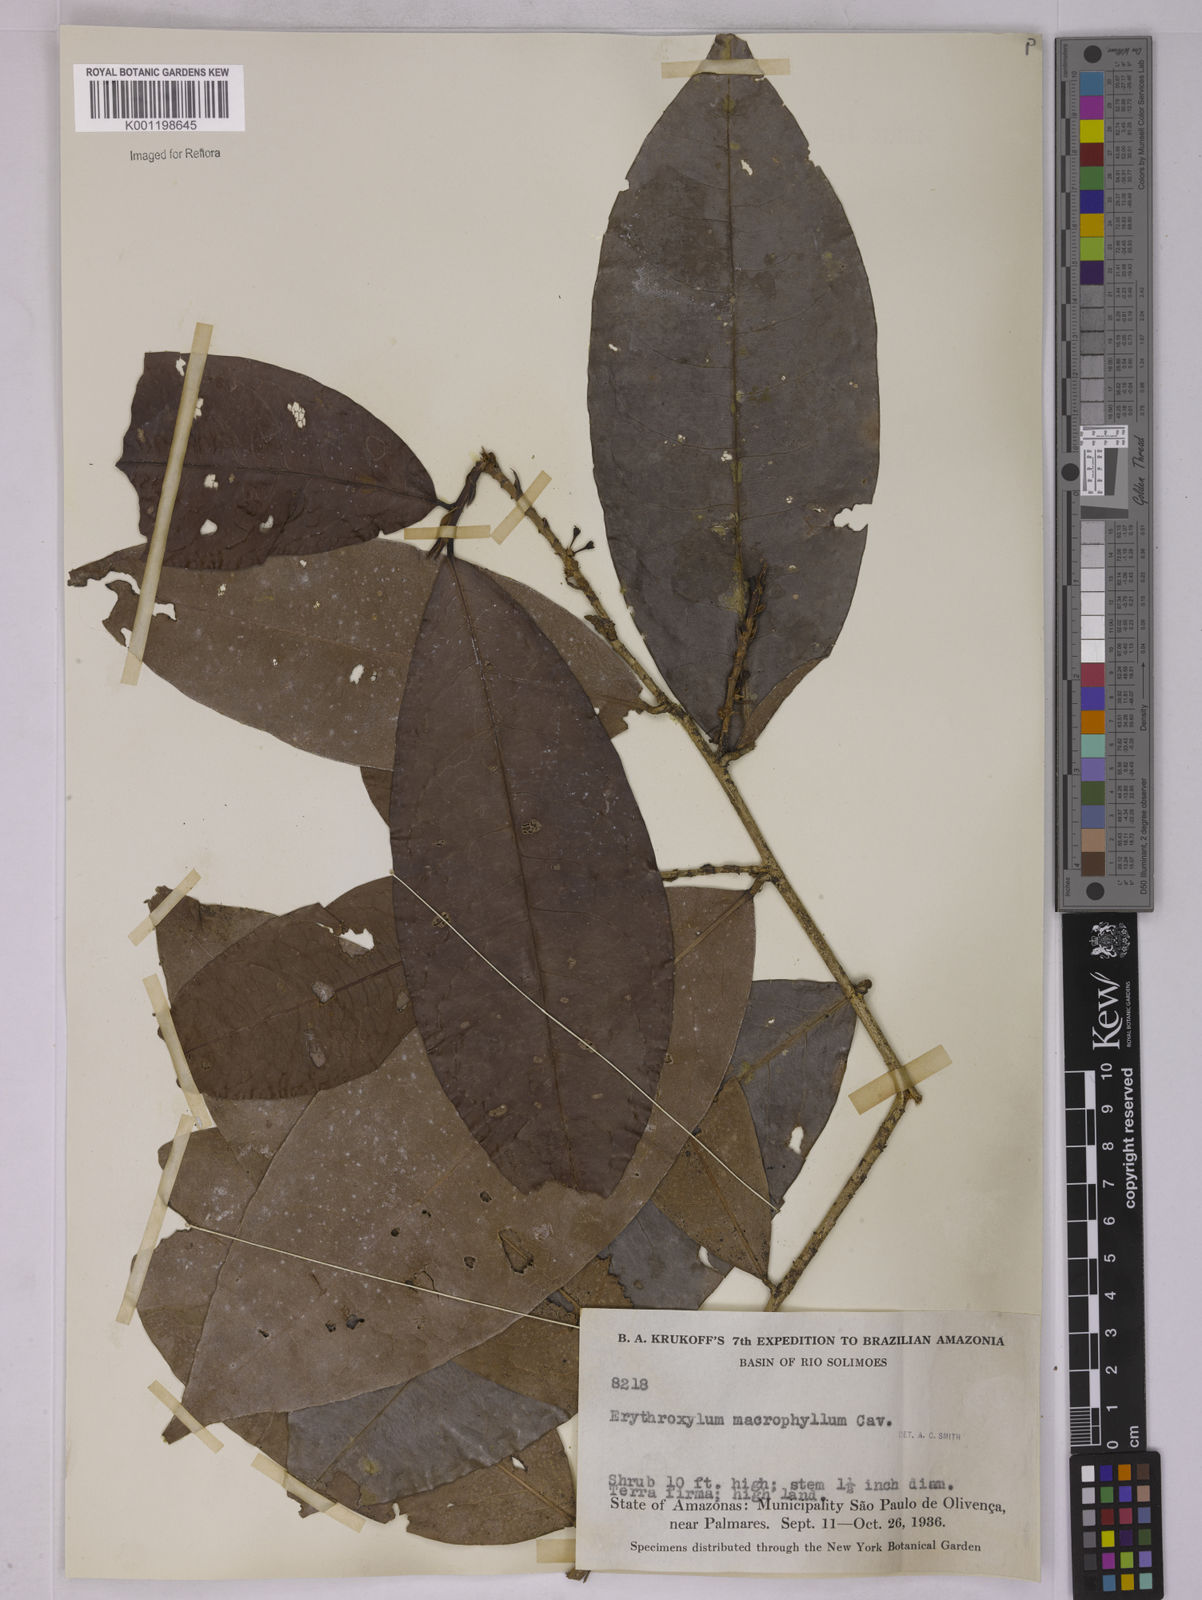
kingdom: Plantae
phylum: Tracheophyta
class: Magnoliopsida
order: Malpighiales
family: Erythroxylaceae
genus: Erythroxylum
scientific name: Erythroxylum macrophyllum
